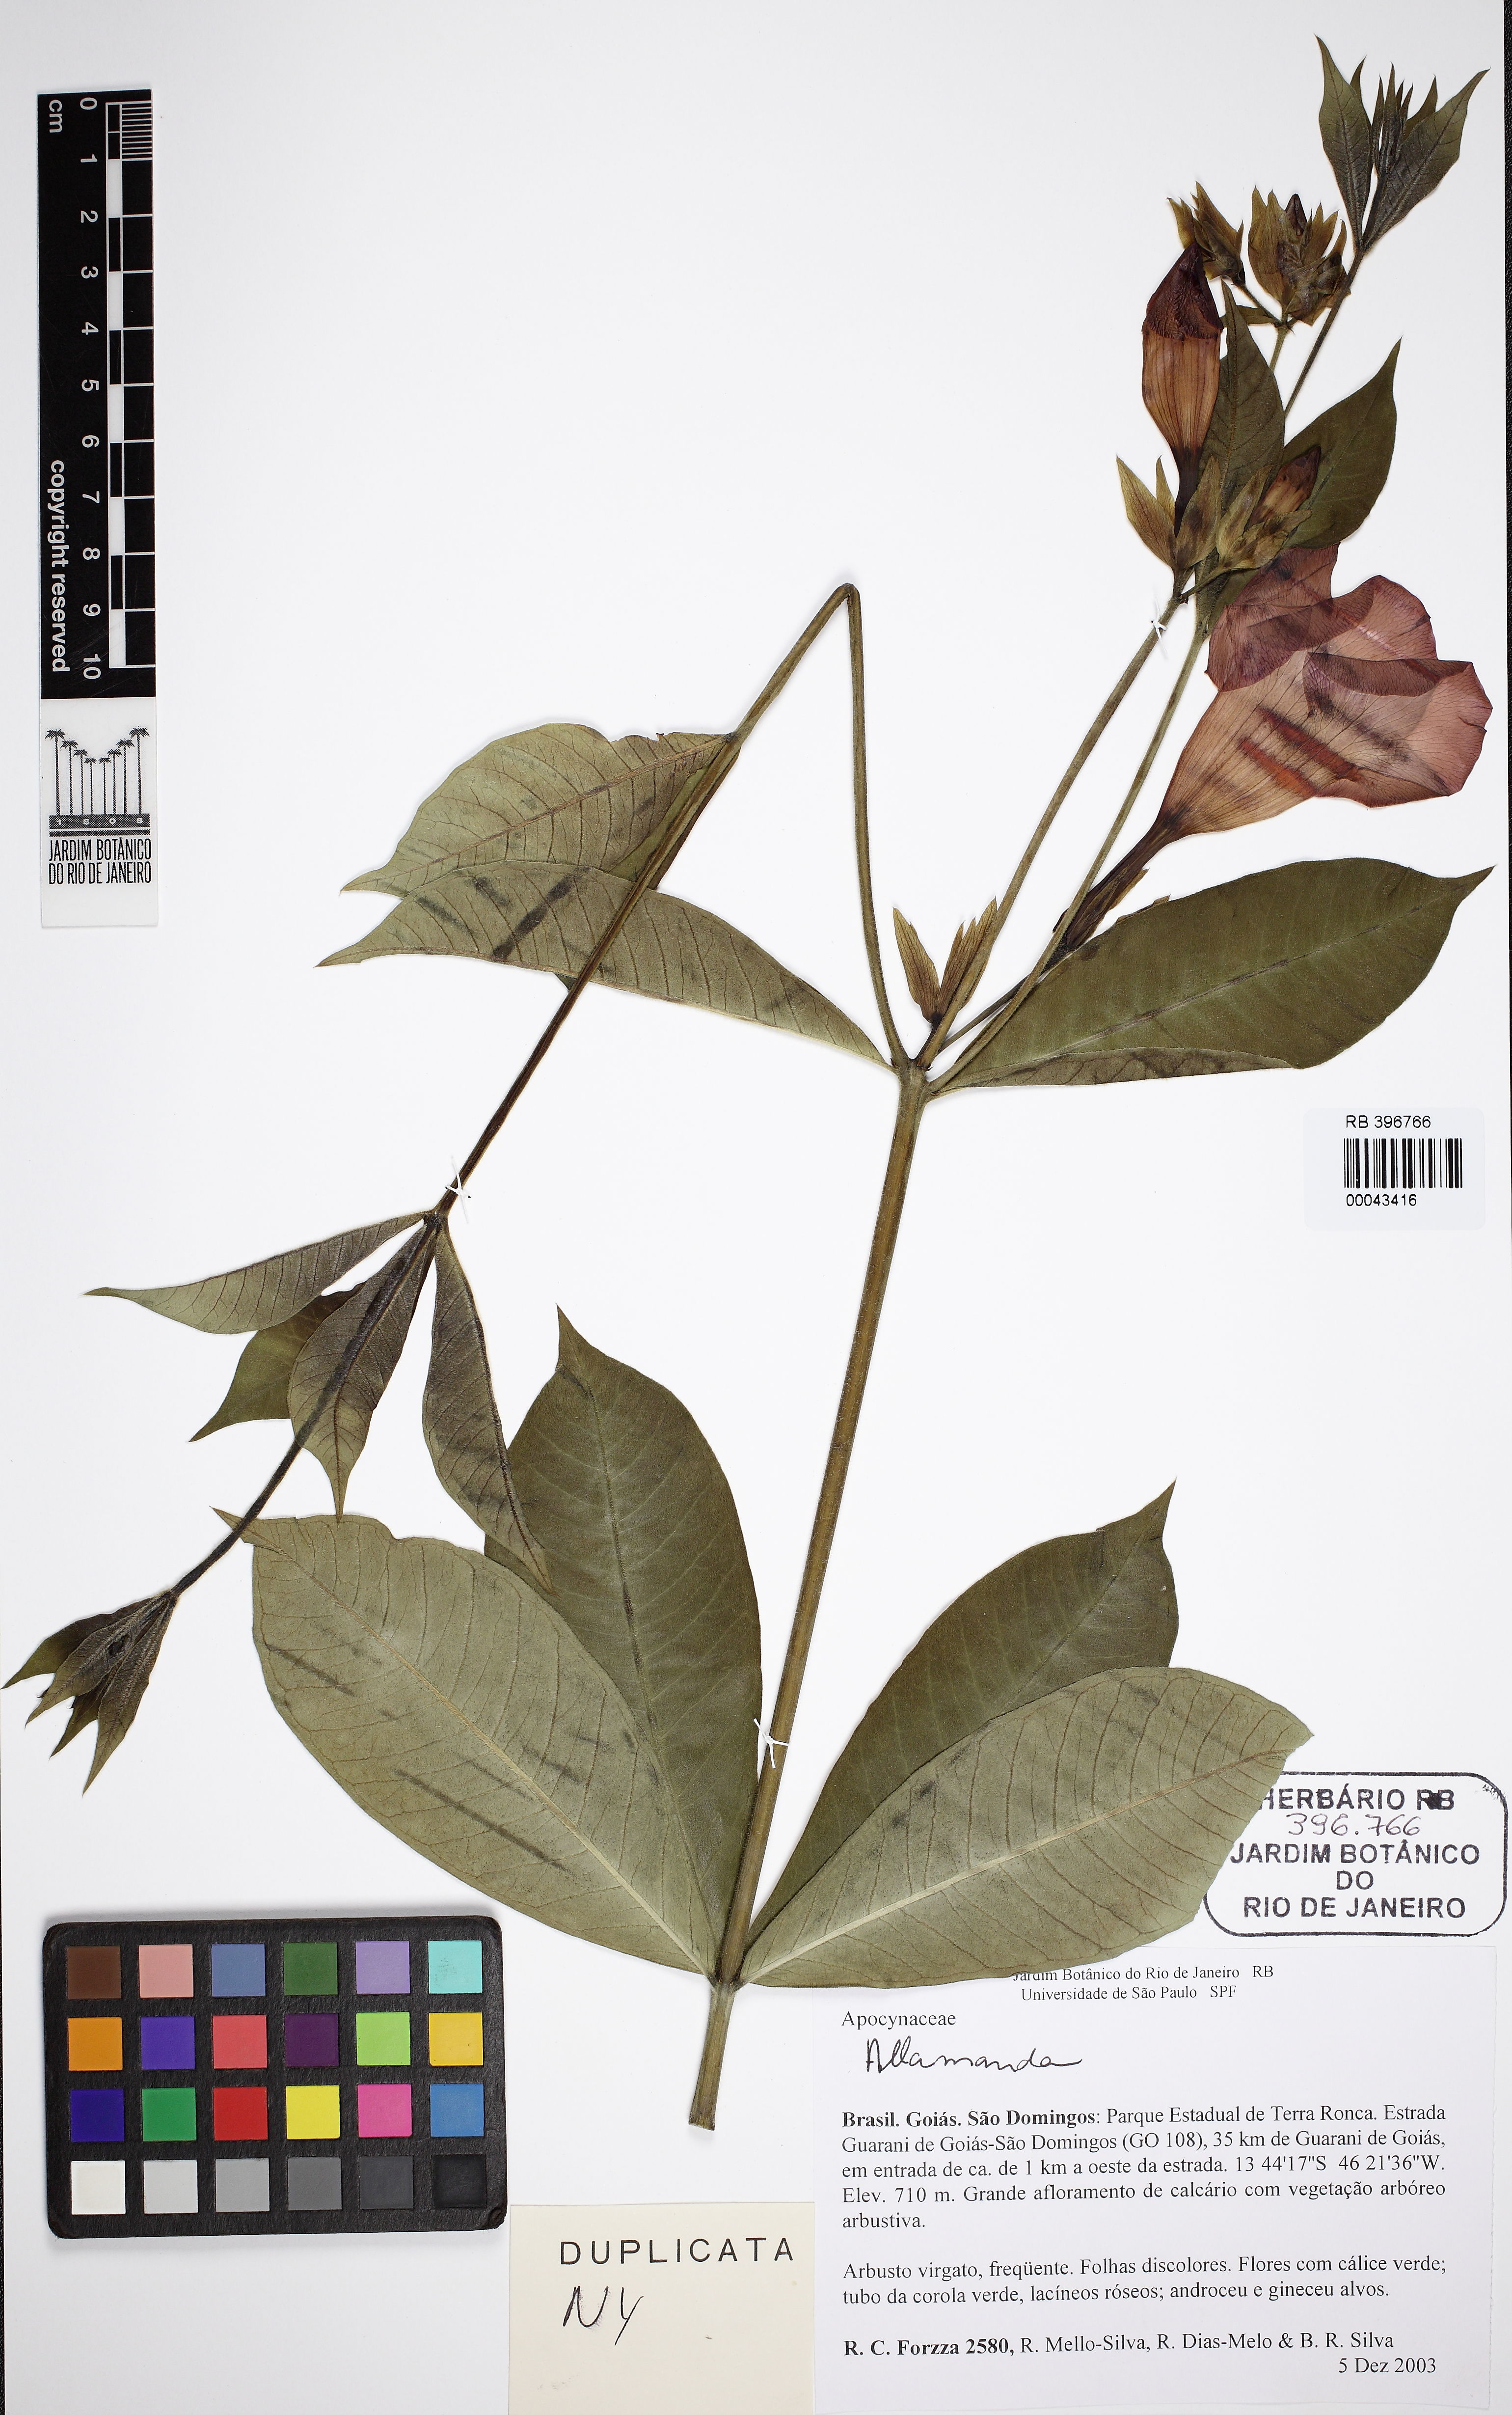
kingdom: Plantae
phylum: Tracheophyta
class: Magnoliopsida
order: Gentianales
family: Apocynaceae
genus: Allamanda
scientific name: Allamanda
